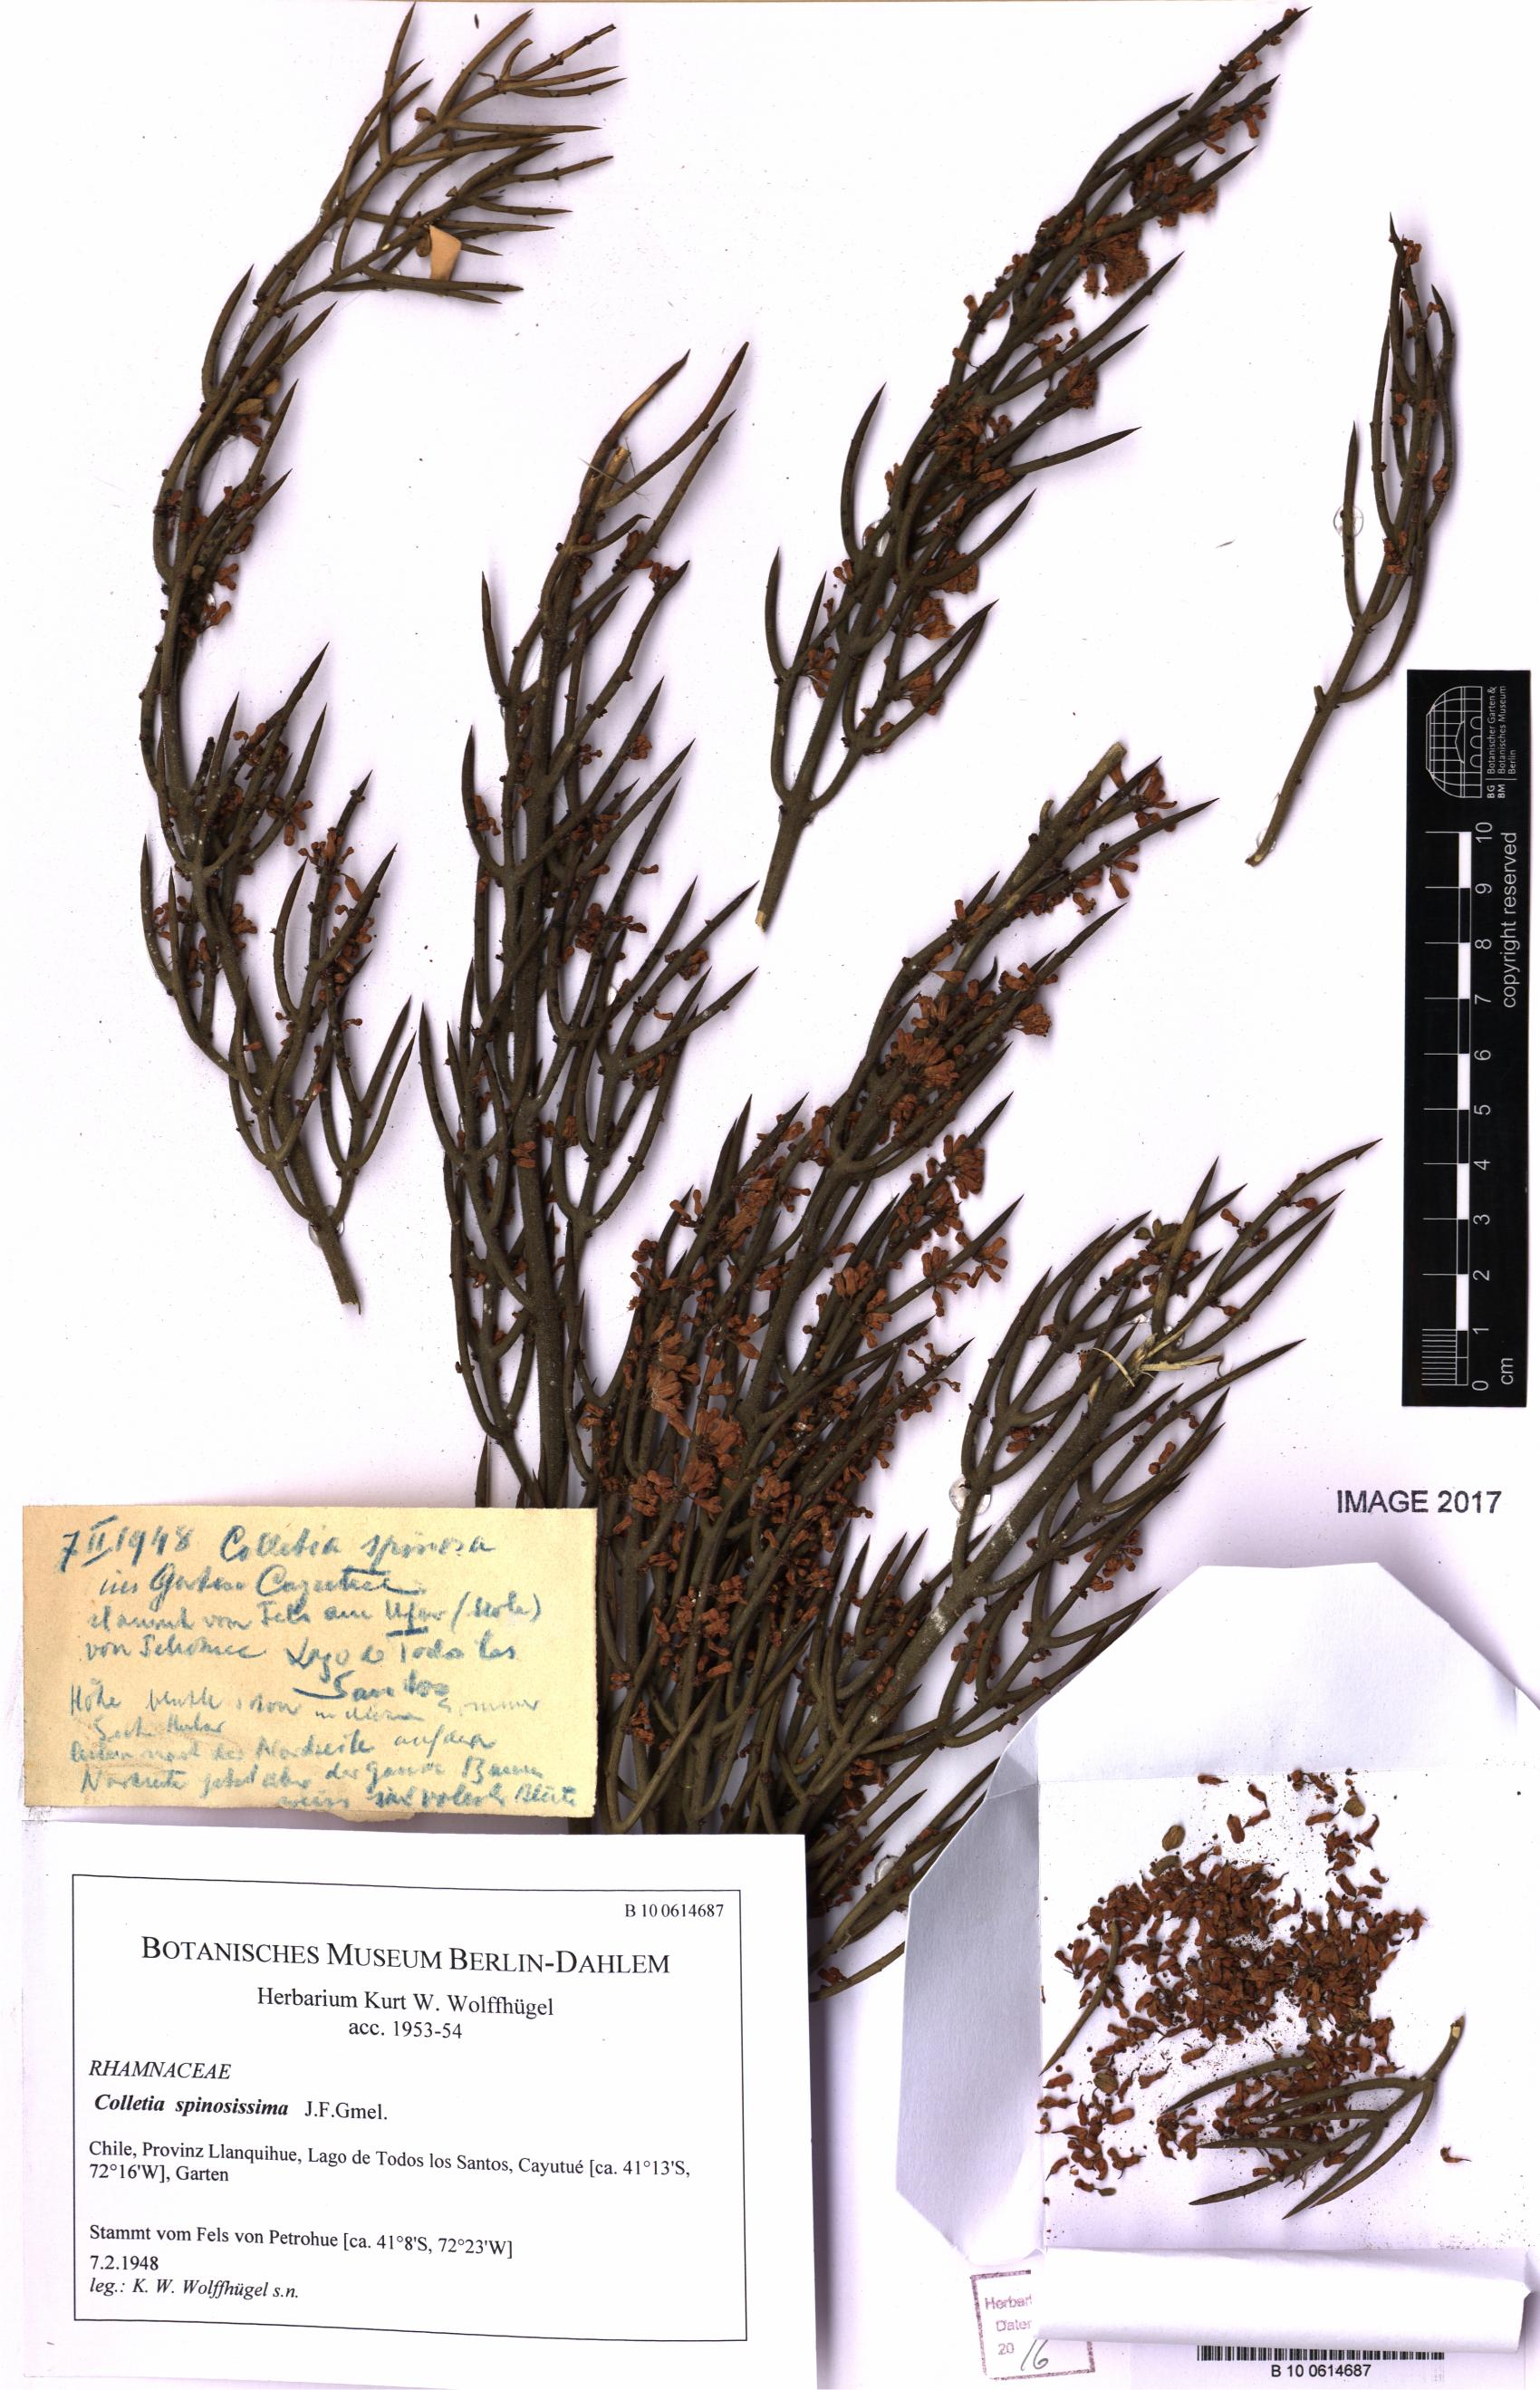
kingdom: Plantae
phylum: Tracheophyta
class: Magnoliopsida
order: Rosales
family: Rhamnaceae
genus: Colletia
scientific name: Colletia spinosissima
